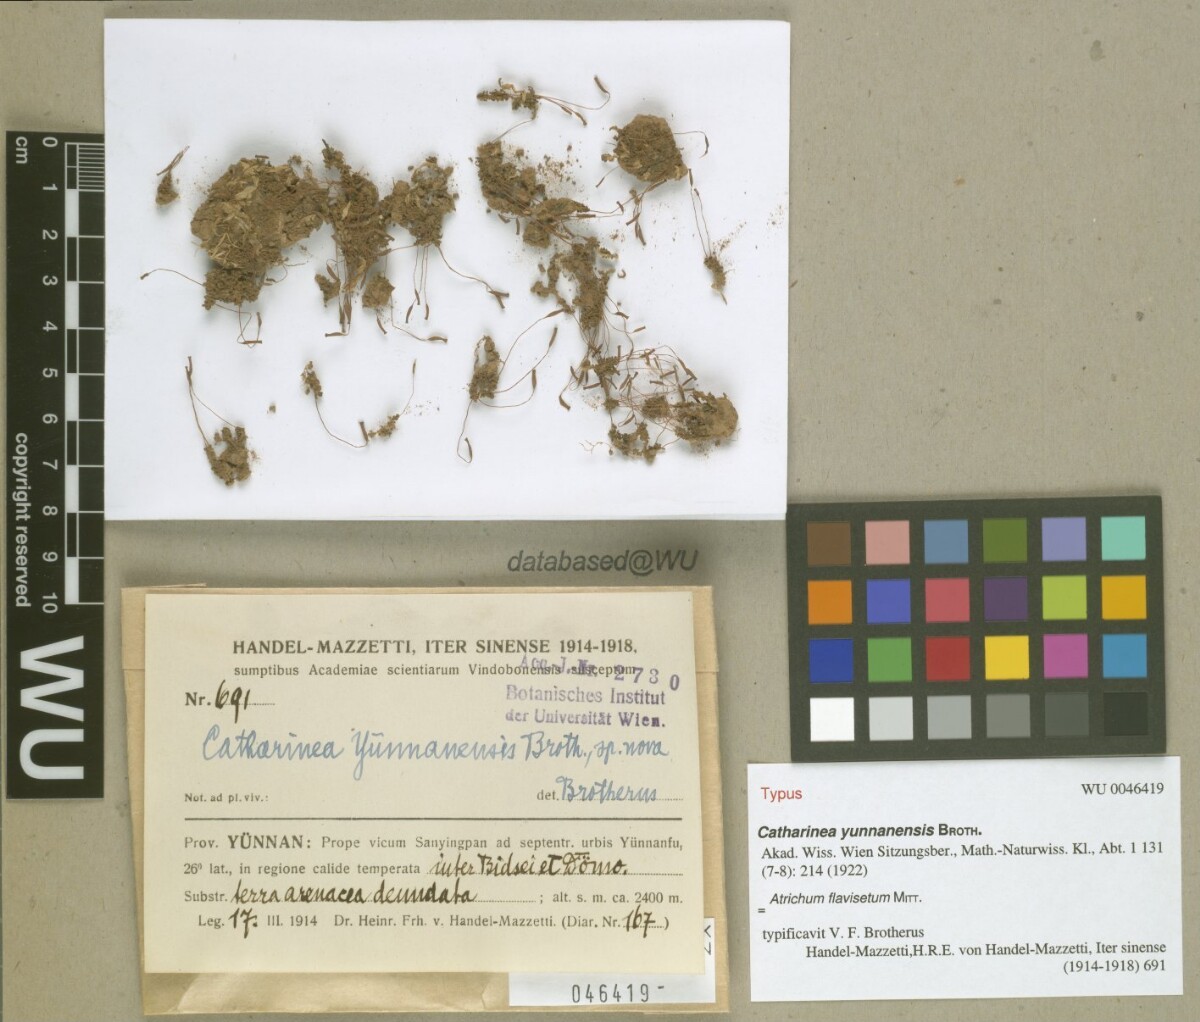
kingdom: Plantae
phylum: Bryophyta
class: Polytrichopsida
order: Polytrichales
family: Polytrichaceae
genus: Atrichum
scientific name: Atrichum undulatum
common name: Common smoothcap
